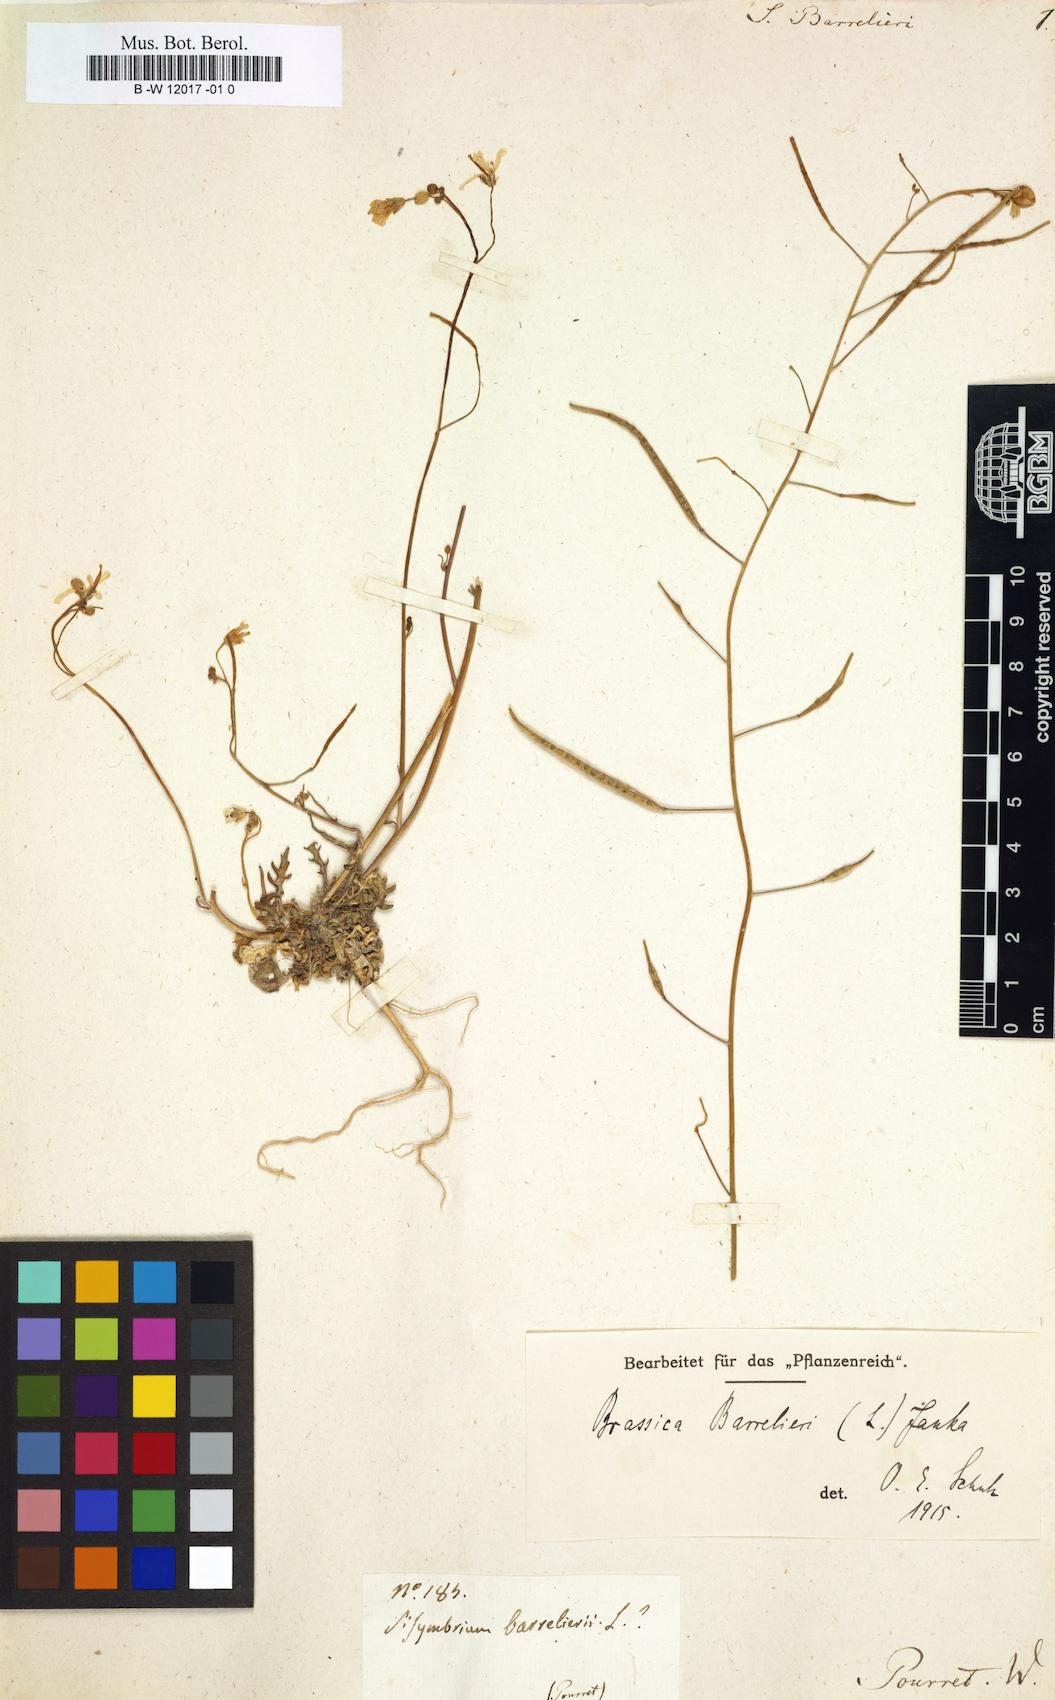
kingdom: Plantae
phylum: Tracheophyta
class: Magnoliopsida
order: Brassicales
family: Brassicaceae
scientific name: Brassicaceae
